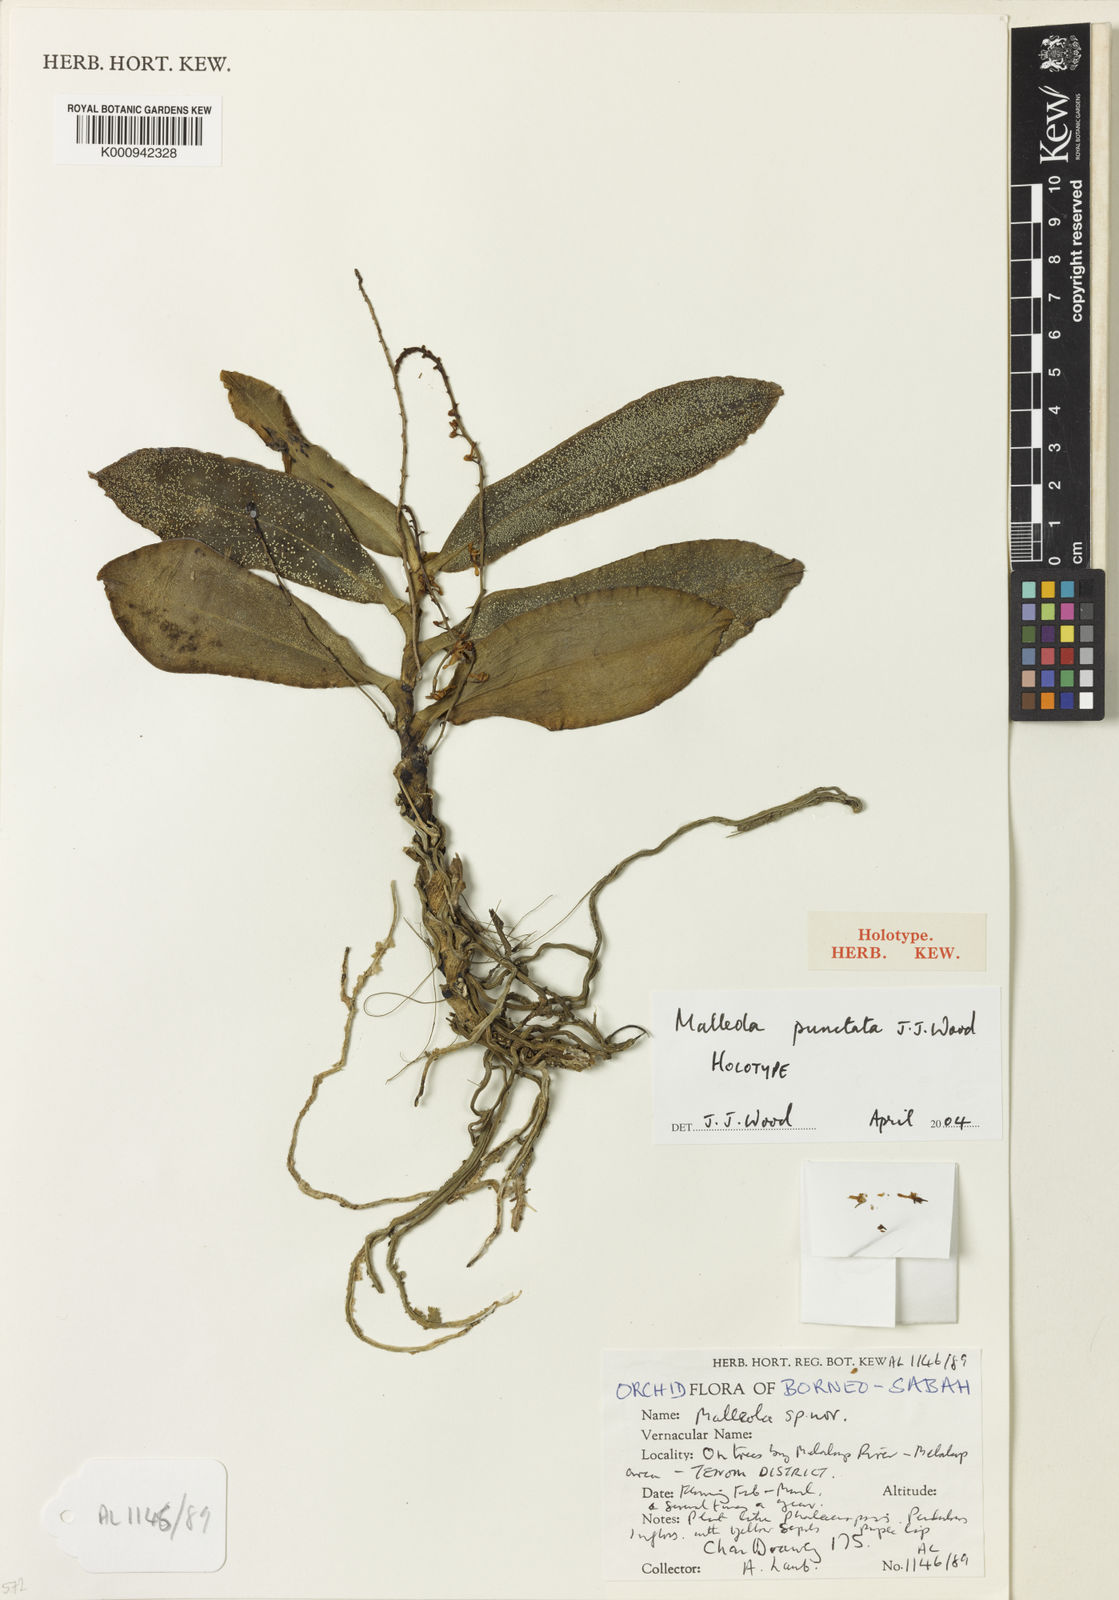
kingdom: Plantae
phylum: Tracheophyta
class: Liliopsida
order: Asparagales
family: Orchidaceae
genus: Robiquetia
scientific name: Robiquetia punctata
